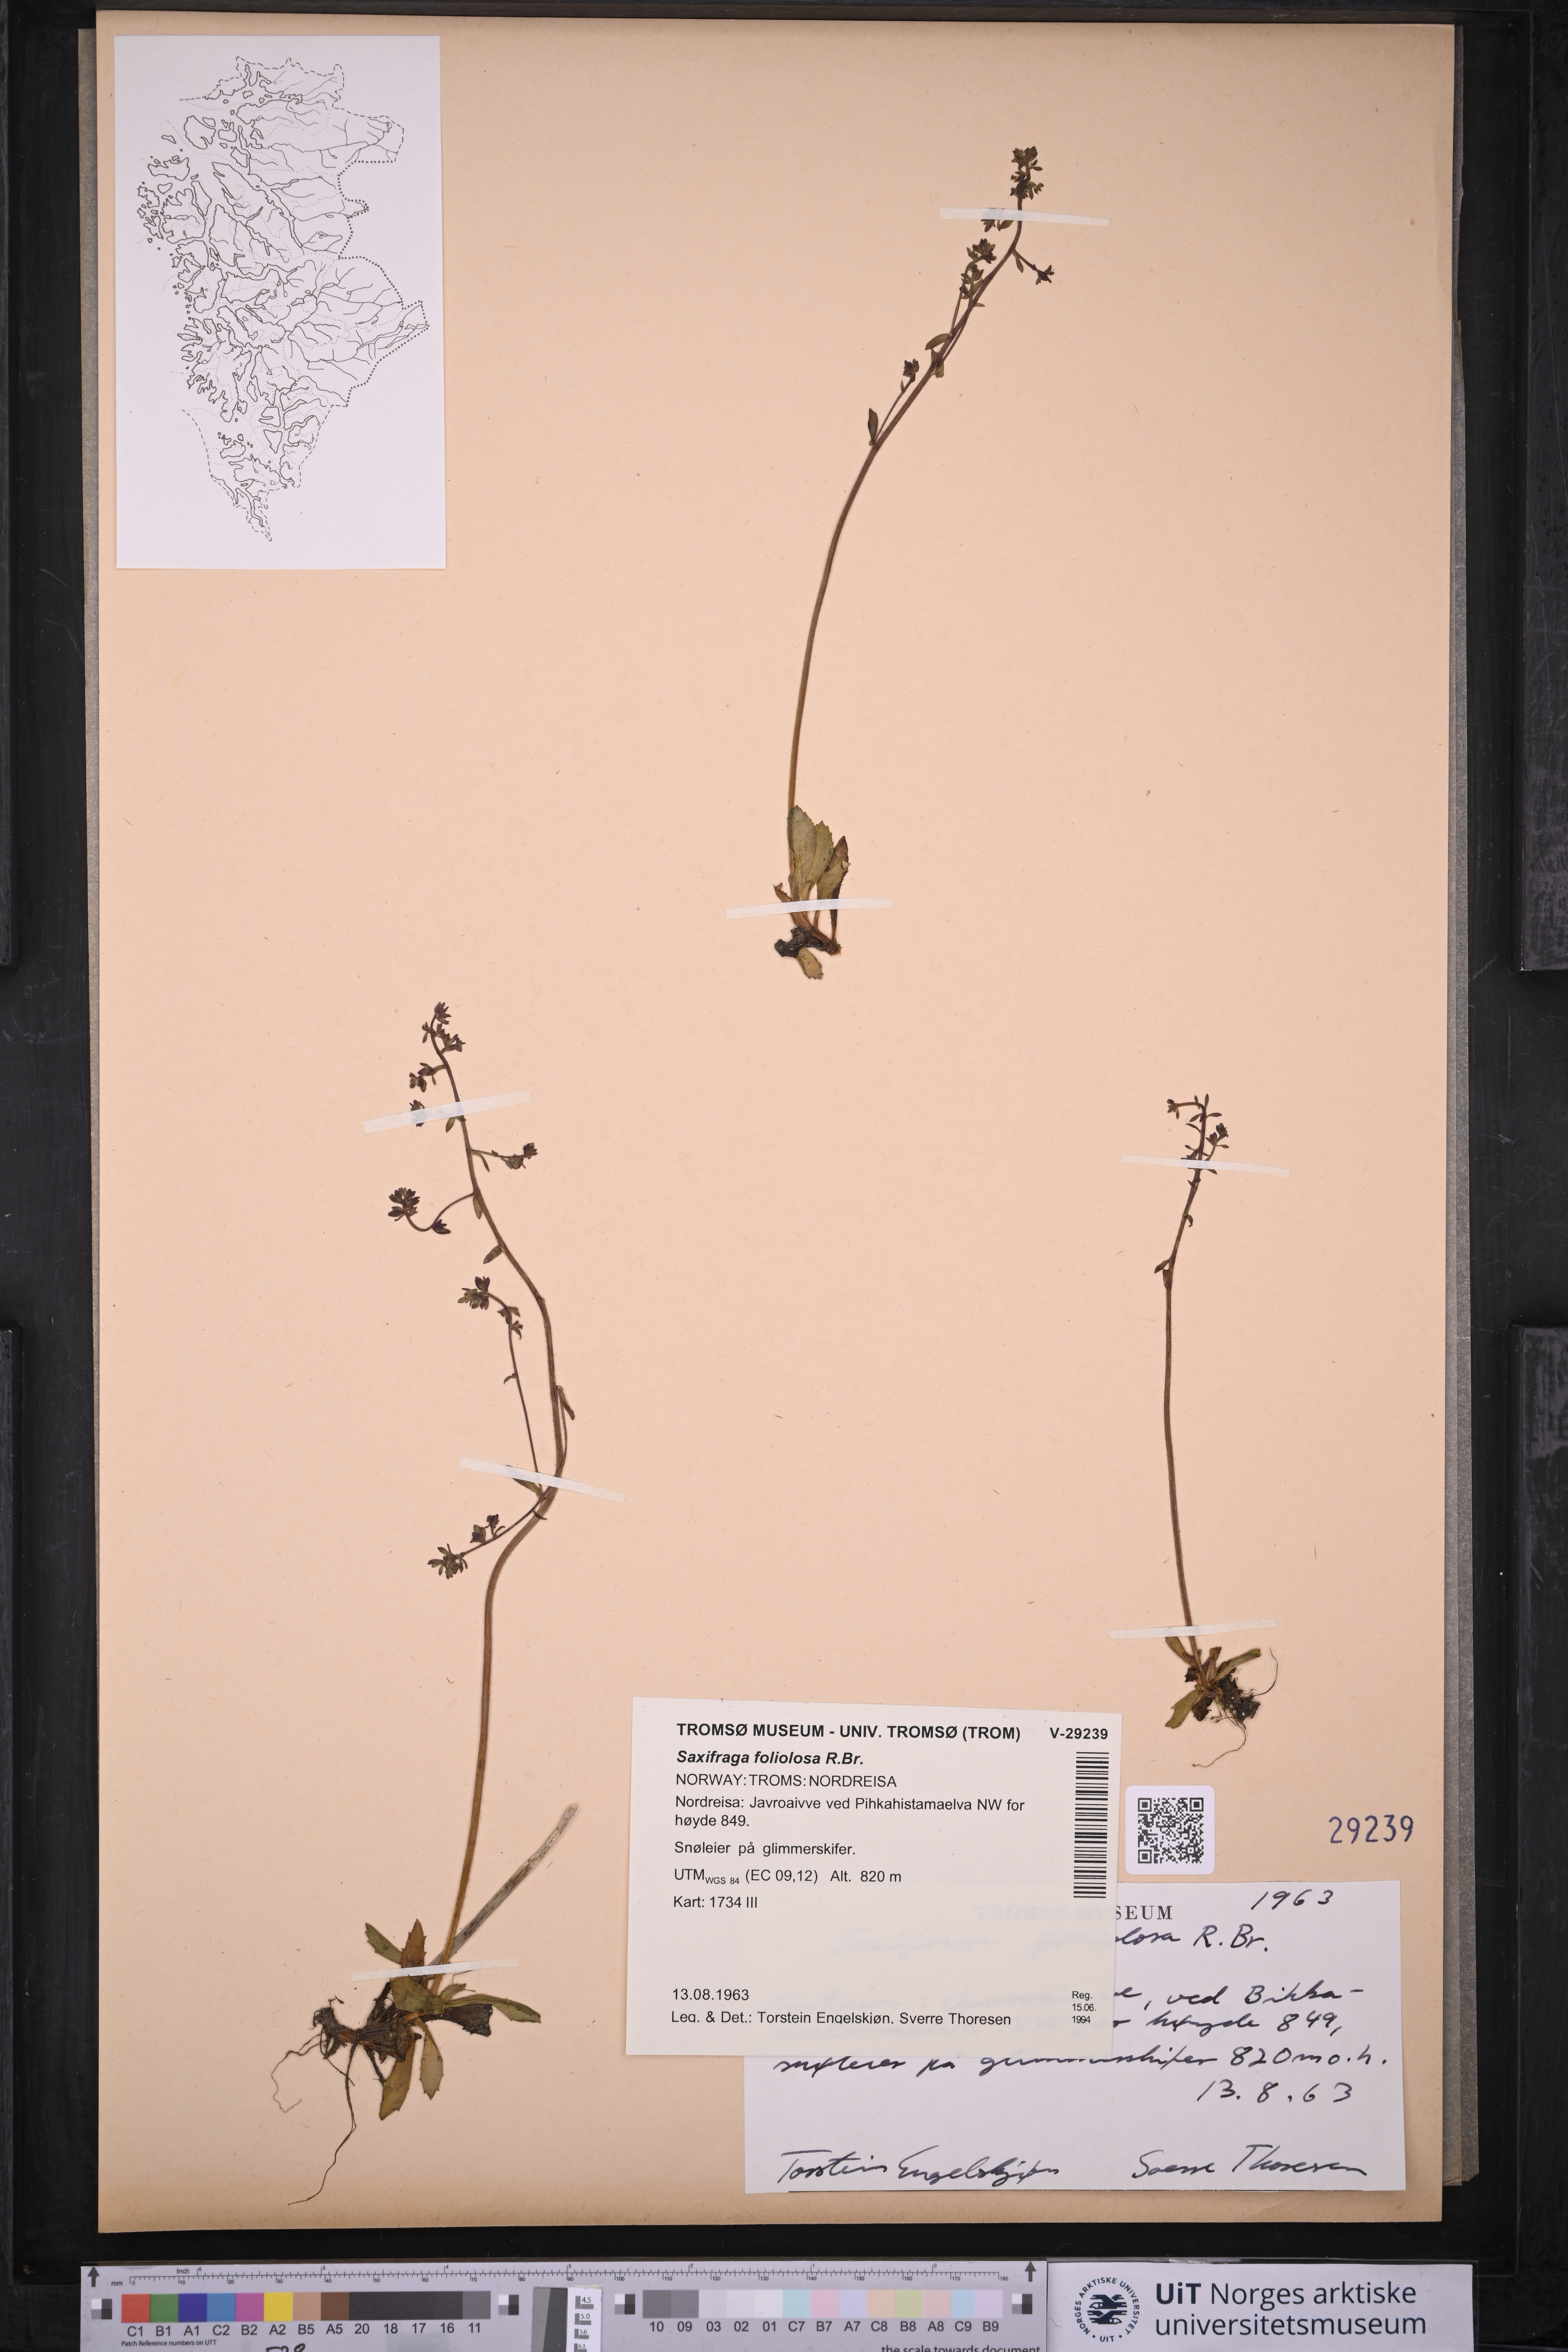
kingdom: Plantae
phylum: Tracheophyta
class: Magnoliopsida
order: Saxifragales
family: Saxifragaceae
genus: Micranthes
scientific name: Micranthes foliolosa
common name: Leafystem saxifrage
